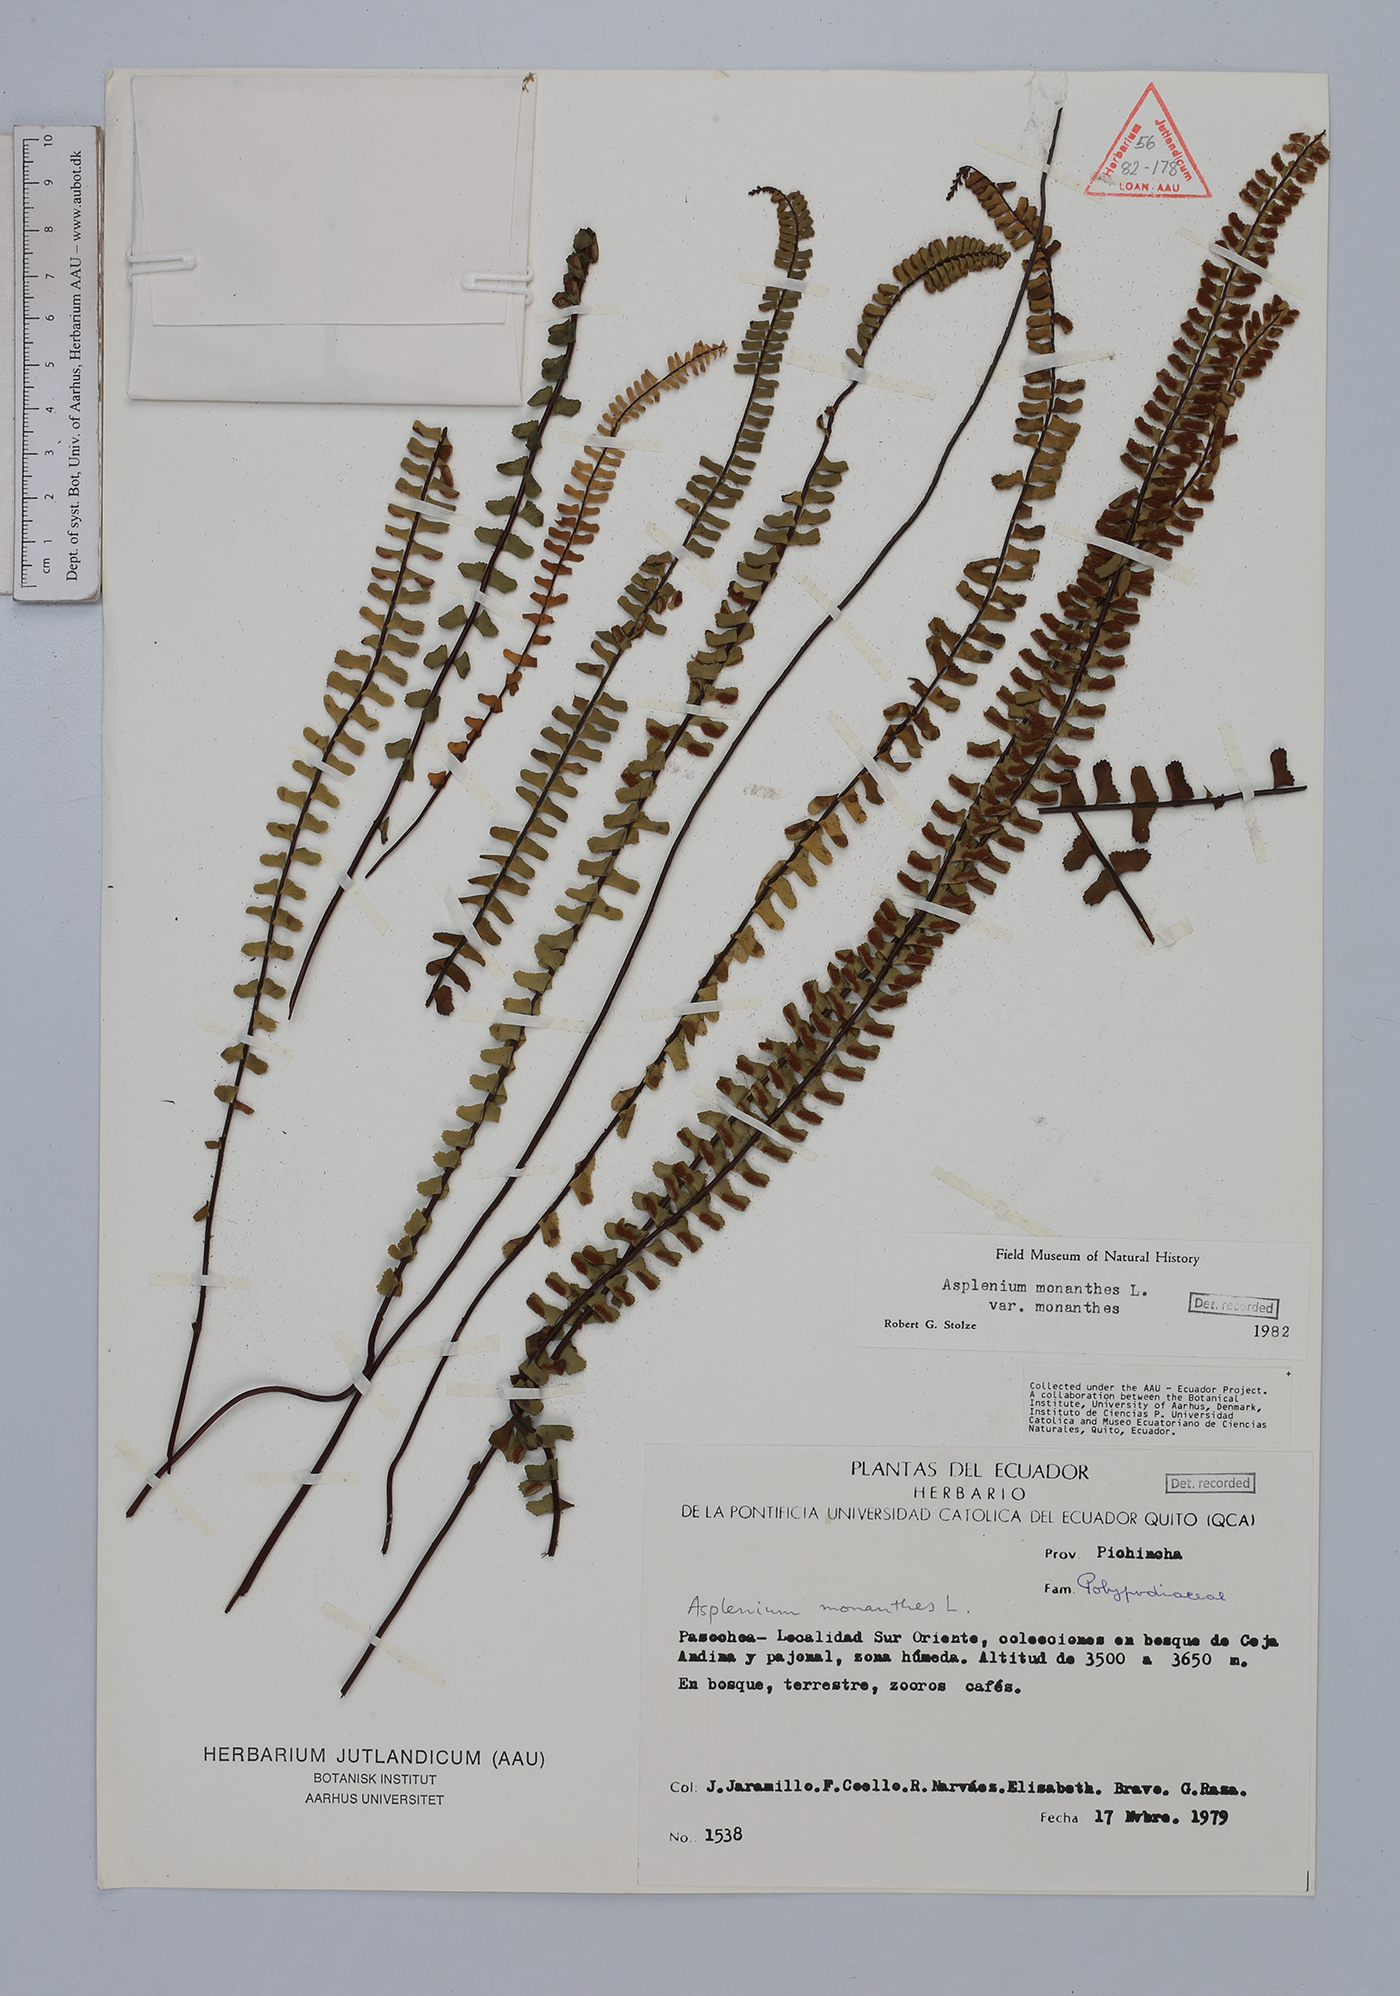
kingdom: Plantae
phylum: Tracheophyta
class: Polypodiopsida
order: Polypodiales
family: Aspleniaceae
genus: Asplenium
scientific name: Asplenium monanthes
